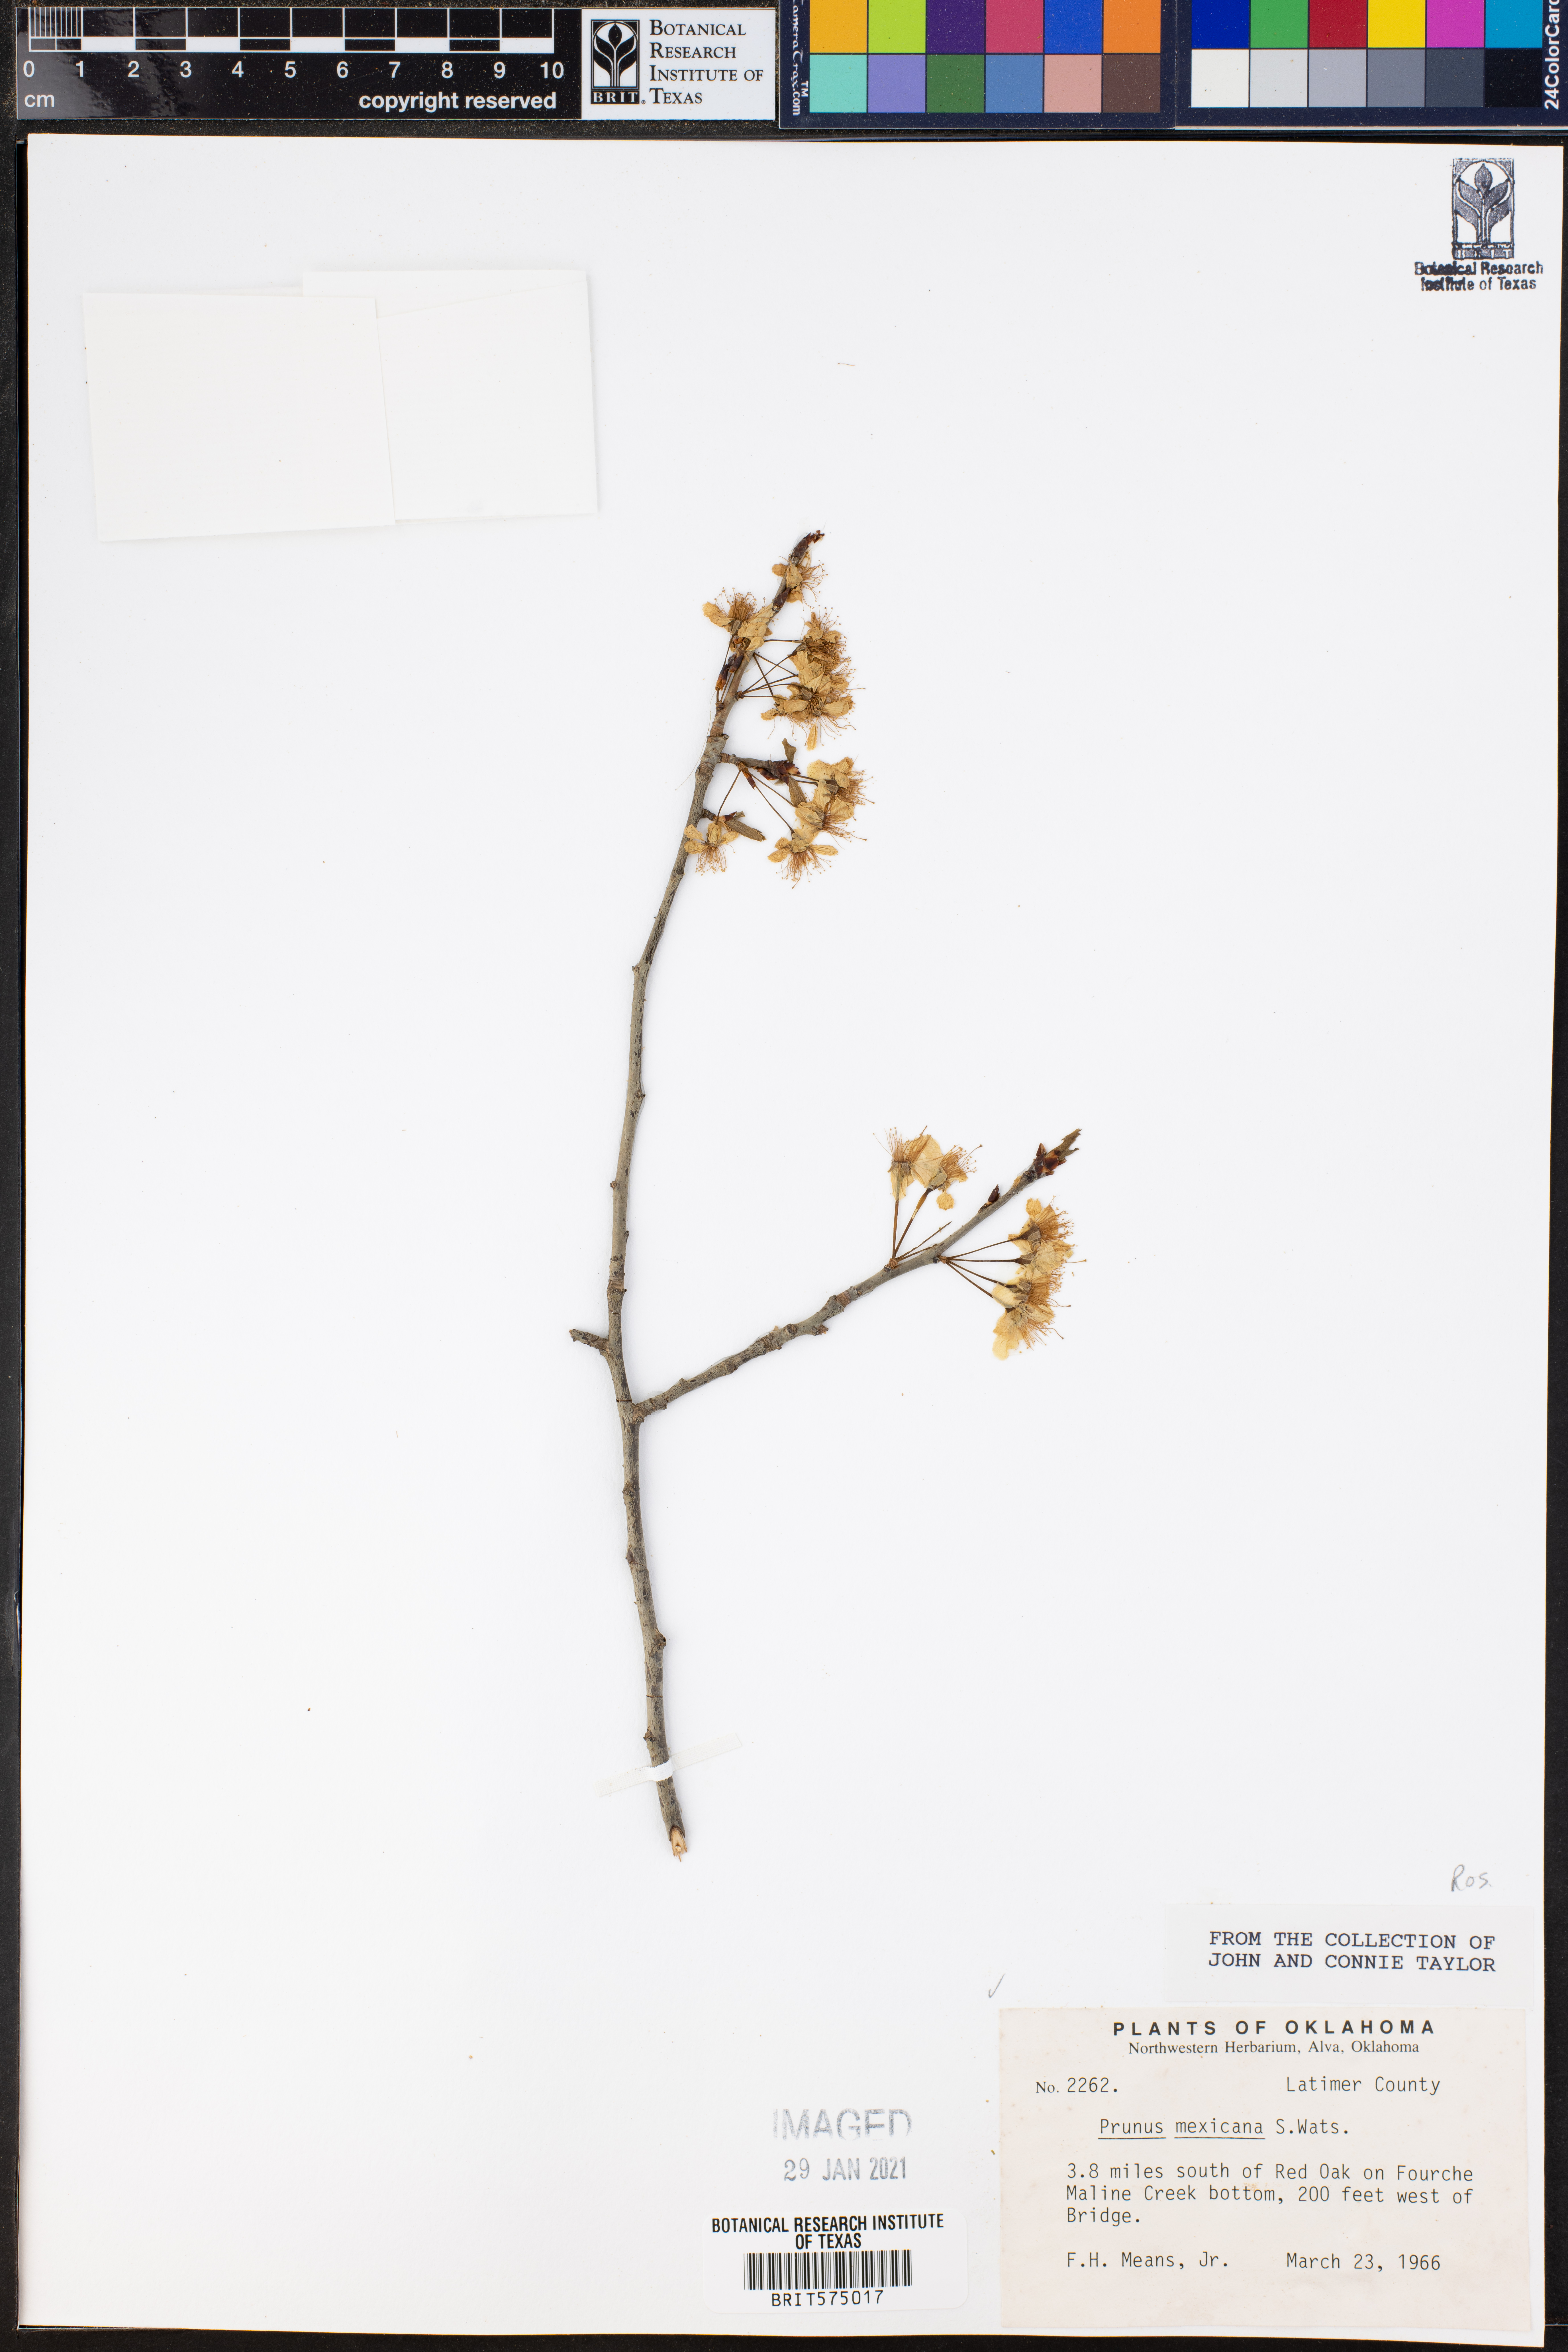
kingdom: Plantae
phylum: Tracheophyta
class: Magnoliopsida
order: Rosales
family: Rosaceae
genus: Prunus
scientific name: Prunus mexicana
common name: Mexican plum
